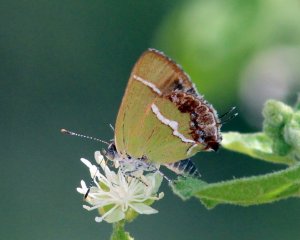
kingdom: Animalia
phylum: Arthropoda
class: Insecta
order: Lepidoptera
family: Lycaenidae
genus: Chlorostrymon
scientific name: Chlorostrymon simaethis
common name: Silver-banded Hairstreak
